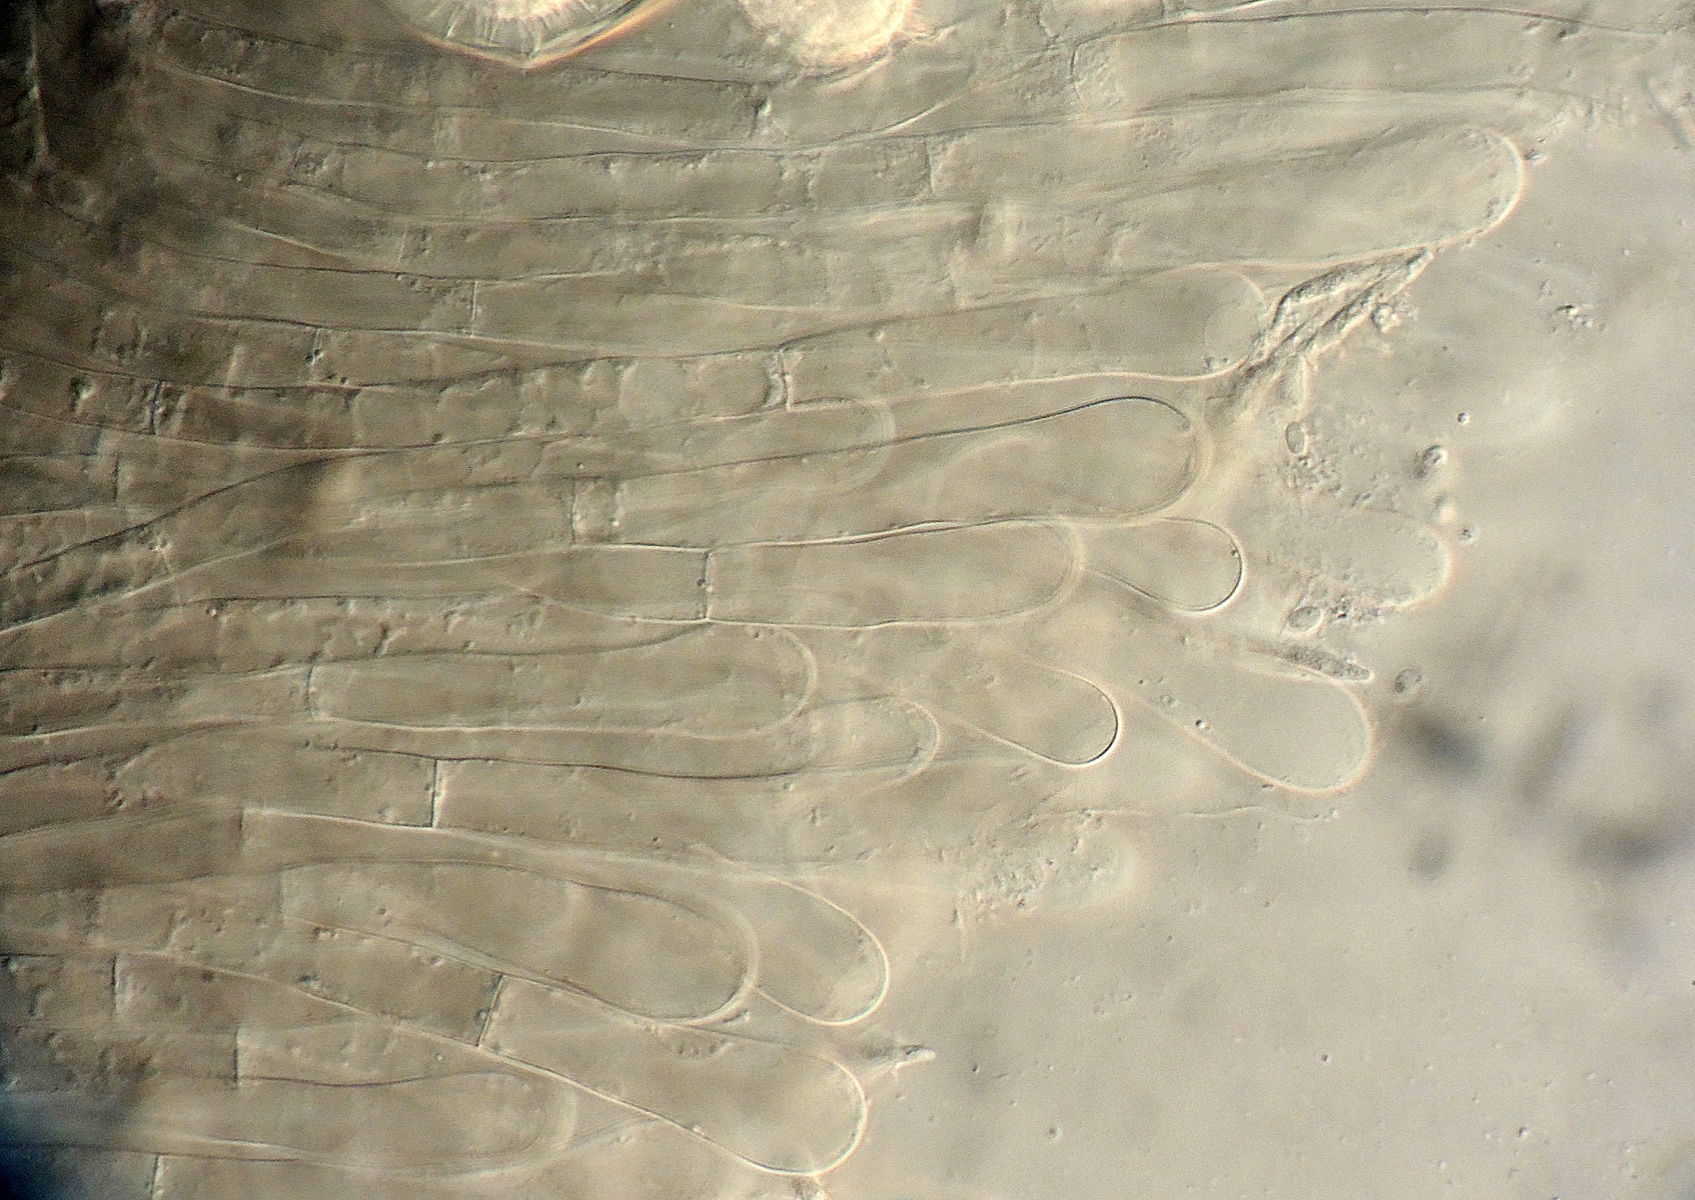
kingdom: Fungi
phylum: Ascomycota
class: Pezizomycetes
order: Pezizales
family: Pyronemataceae
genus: Oviascoma
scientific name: Oviascoma paludosum
